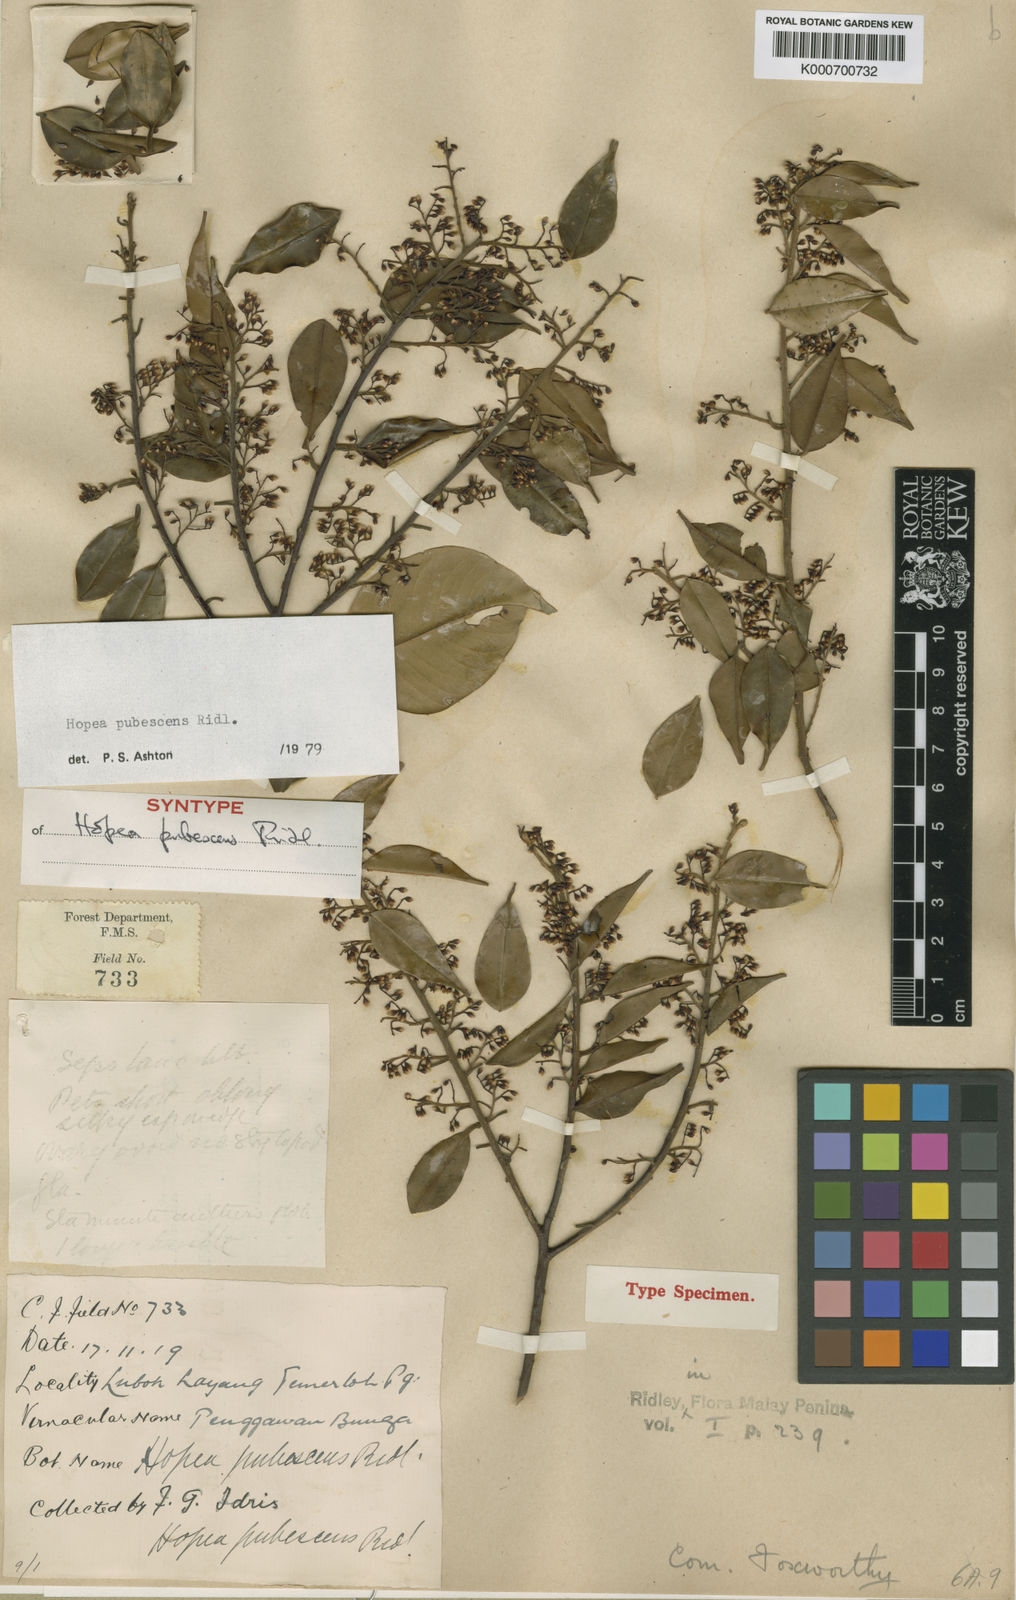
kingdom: Plantae
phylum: Tracheophyta
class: Magnoliopsida
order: Malvales
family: Dipterocarpaceae
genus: Hopea
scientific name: Hopea pubescens
